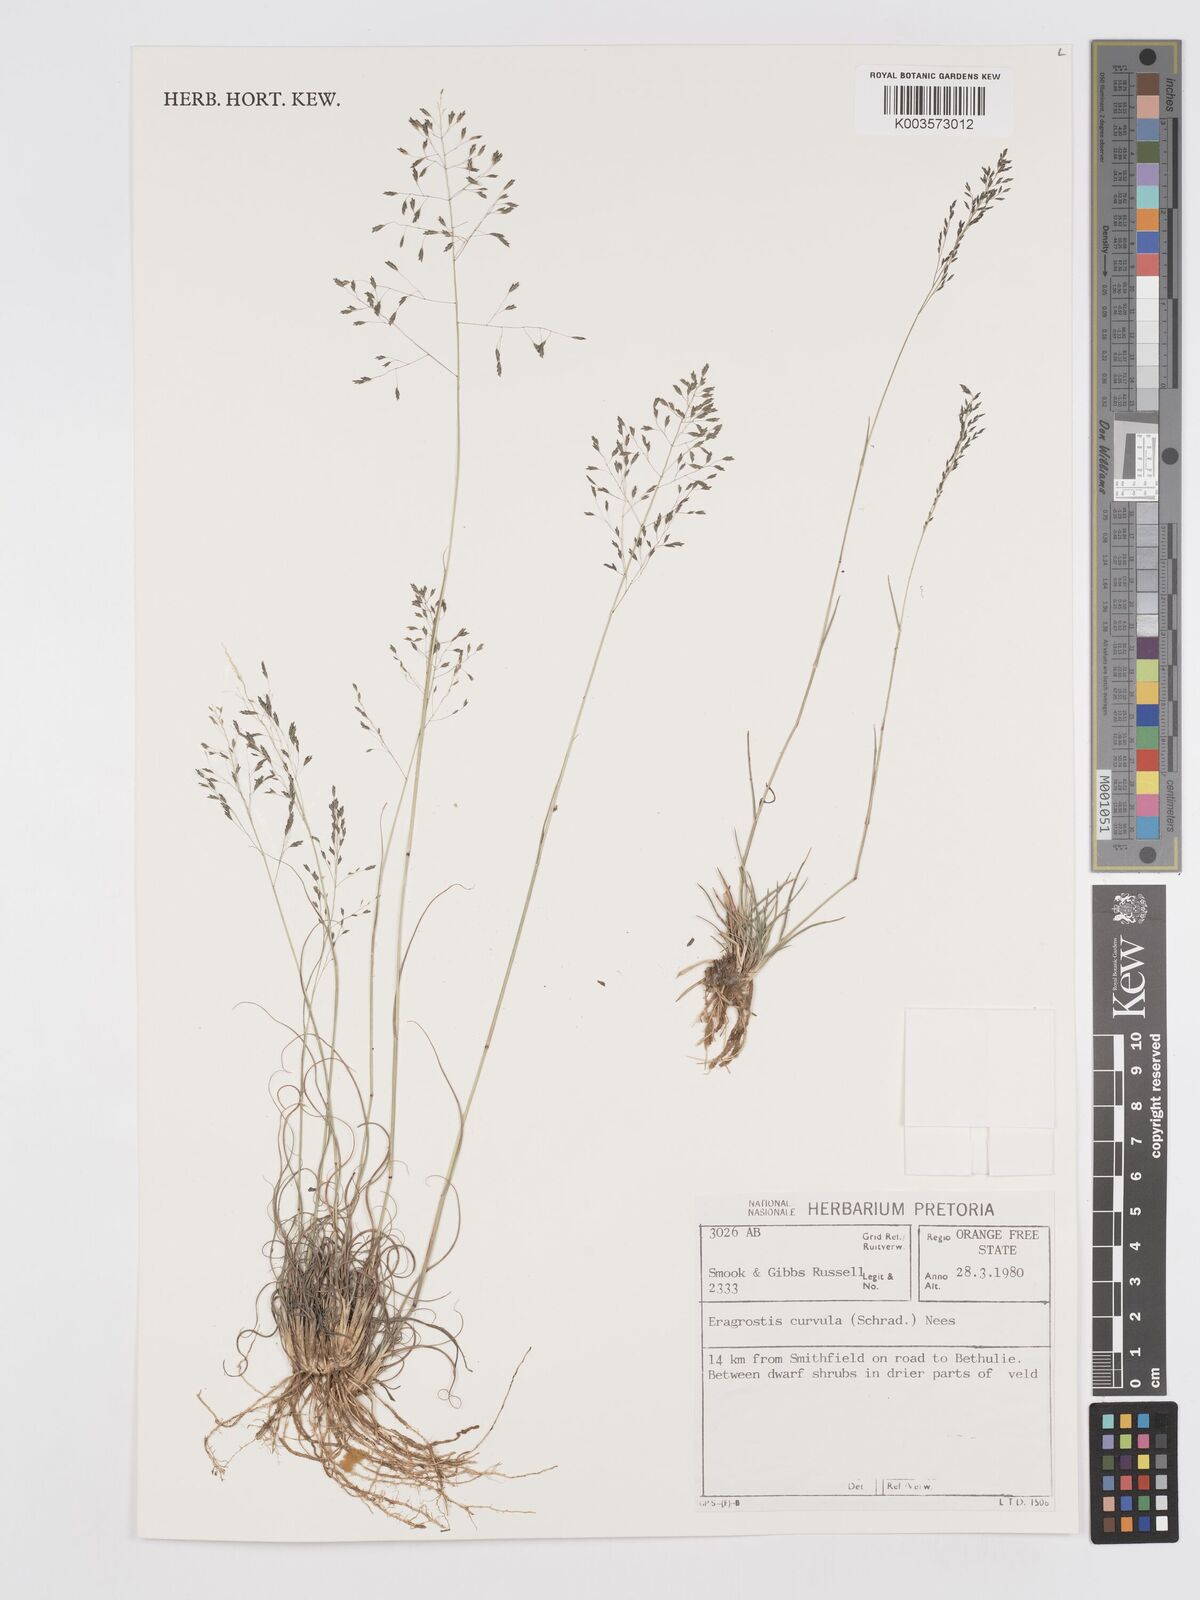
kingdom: Plantae
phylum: Tracheophyta
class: Liliopsida
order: Poales
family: Poaceae
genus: Eragrostis
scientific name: Eragrostis curvula
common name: African love-grass
